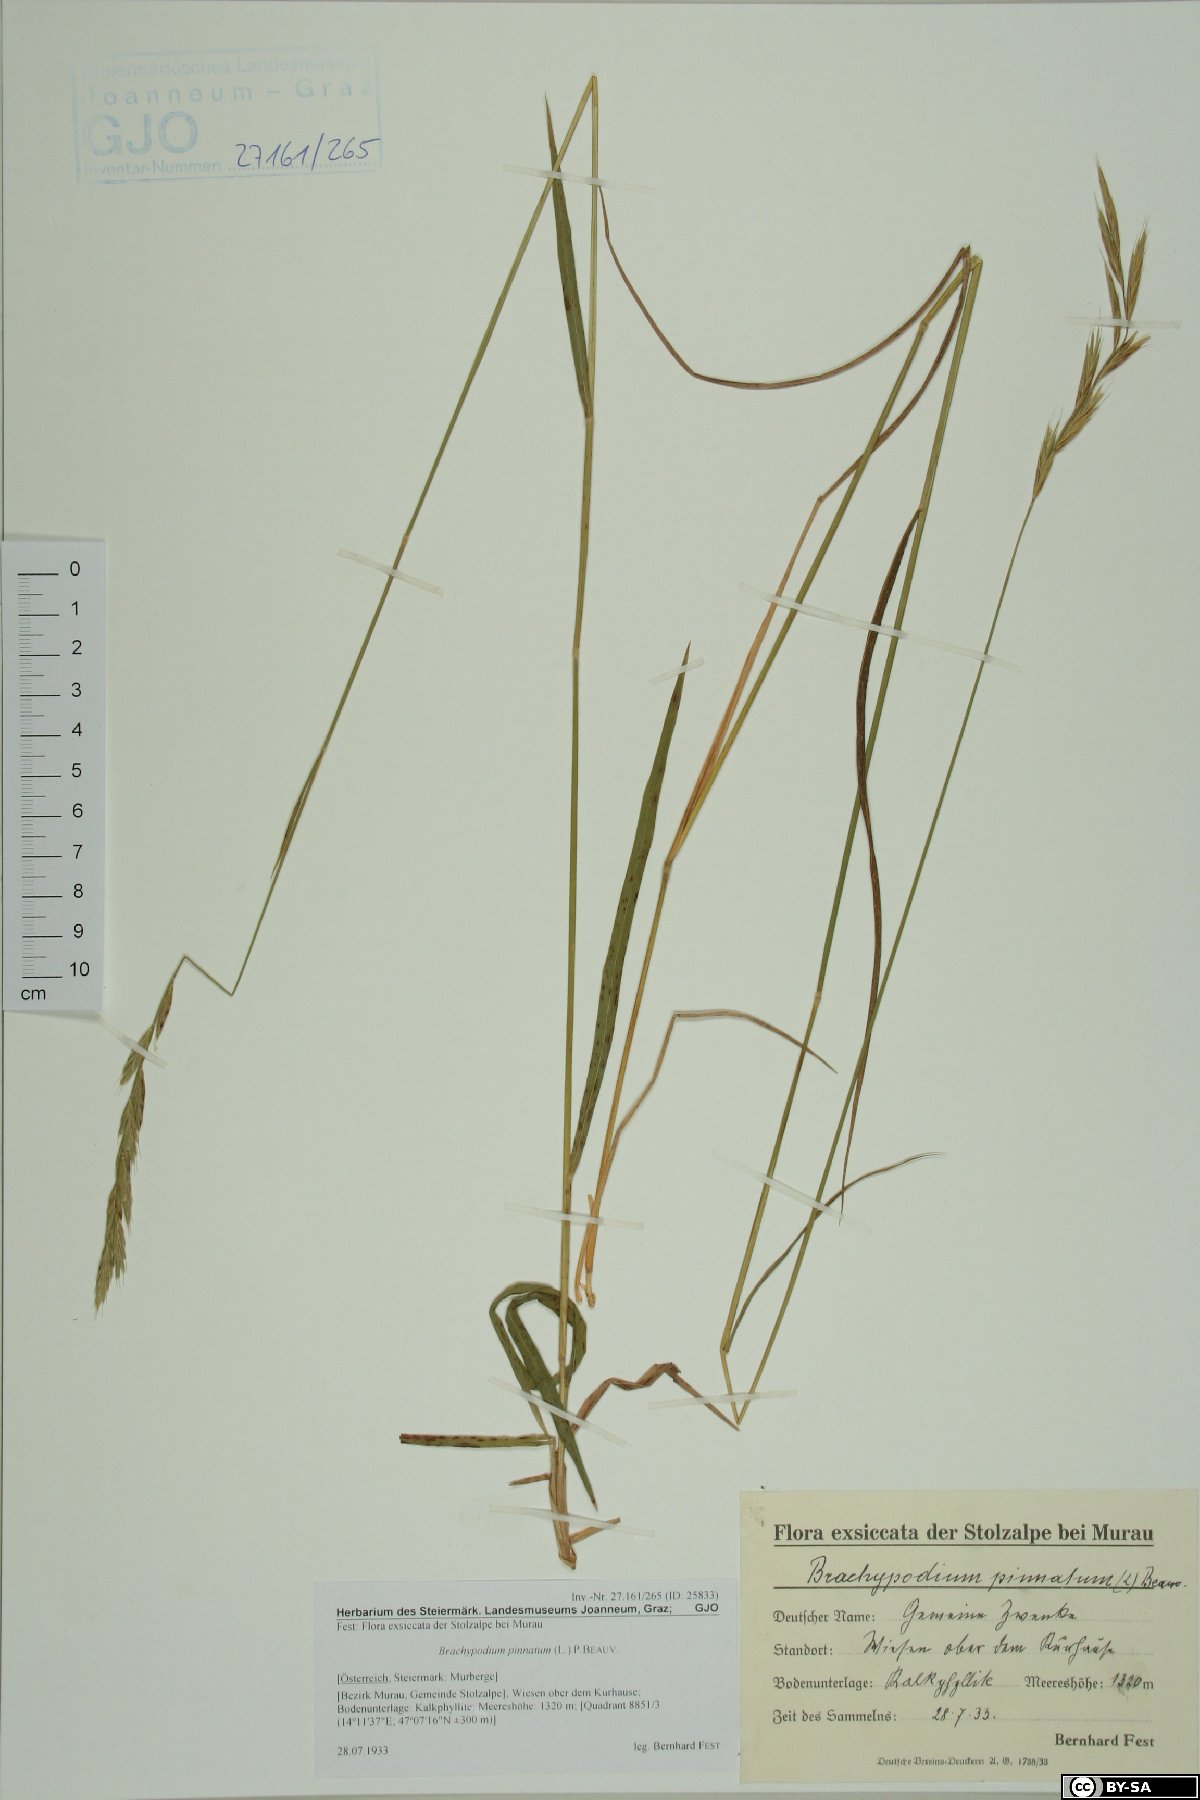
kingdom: Plantae
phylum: Tracheophyta
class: Liliopsida
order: Poales
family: Poaceae
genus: Brachypodium
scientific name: Brachypodium pinnatum
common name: Tor grass
